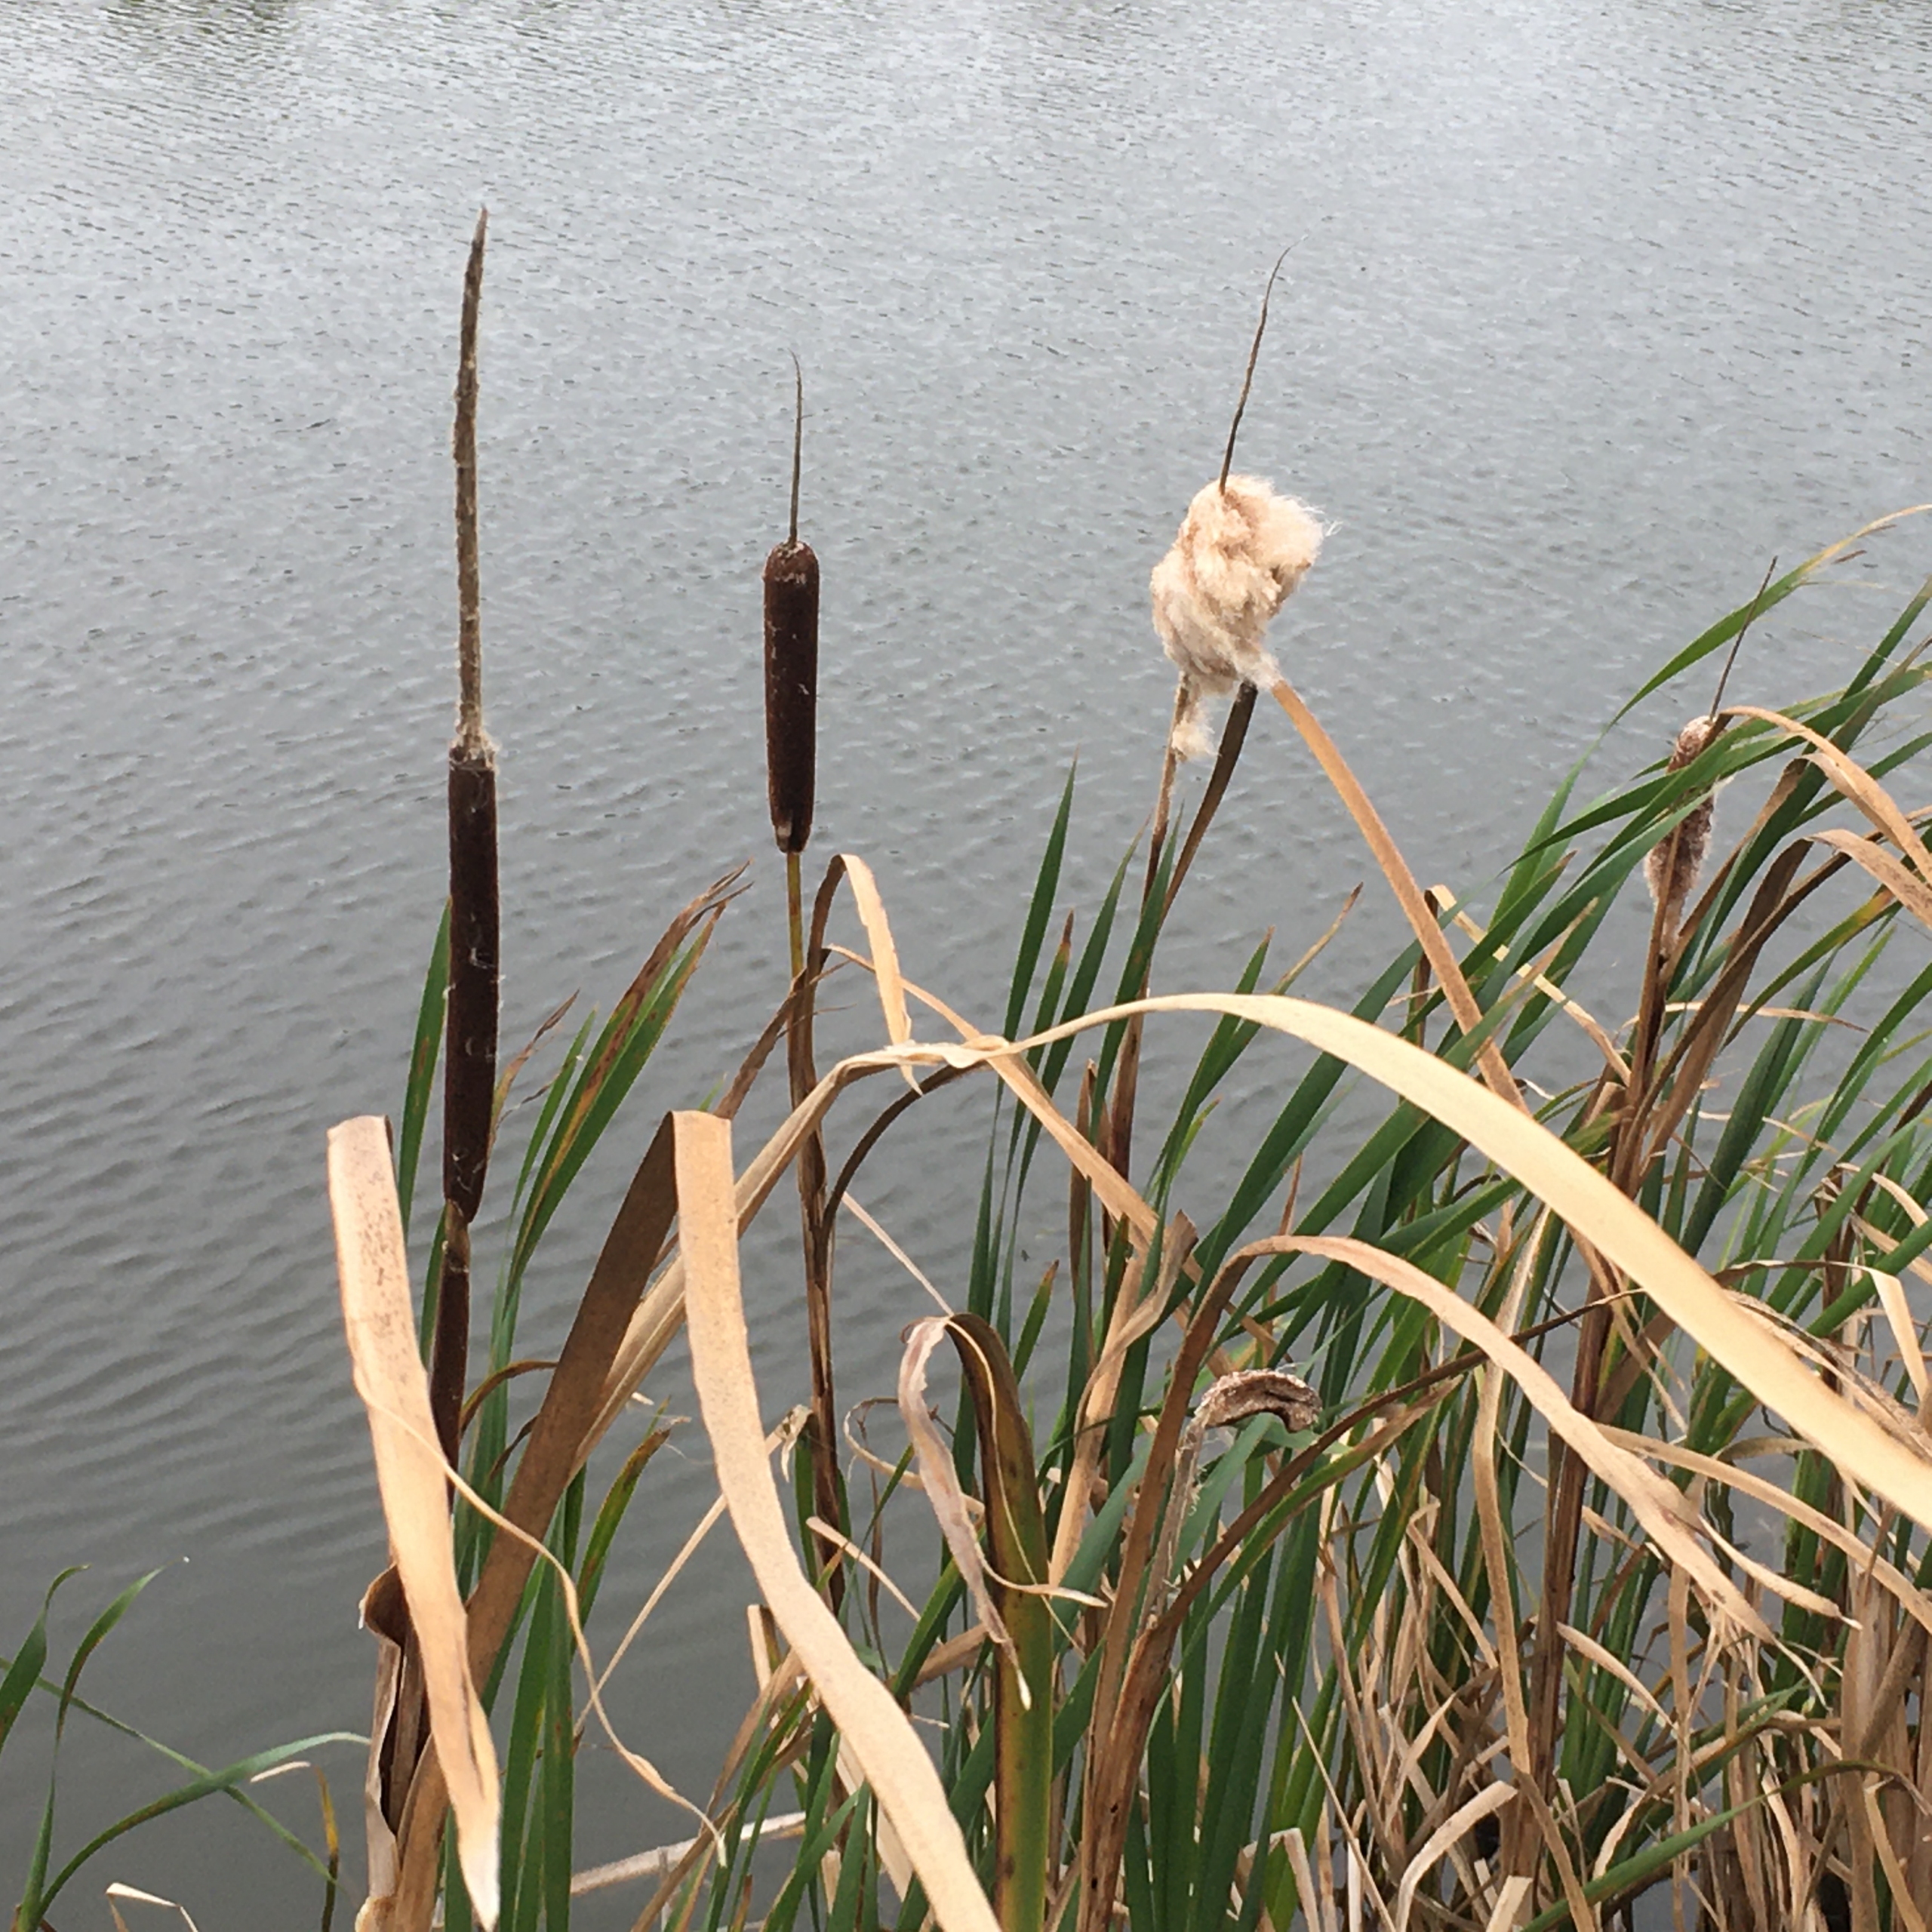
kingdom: Plantae
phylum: Tracheophyta
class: Liliopsida
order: Poales
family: Typhaceae
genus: Typha
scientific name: Typha latifolia
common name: Bredbladet dunhammer
